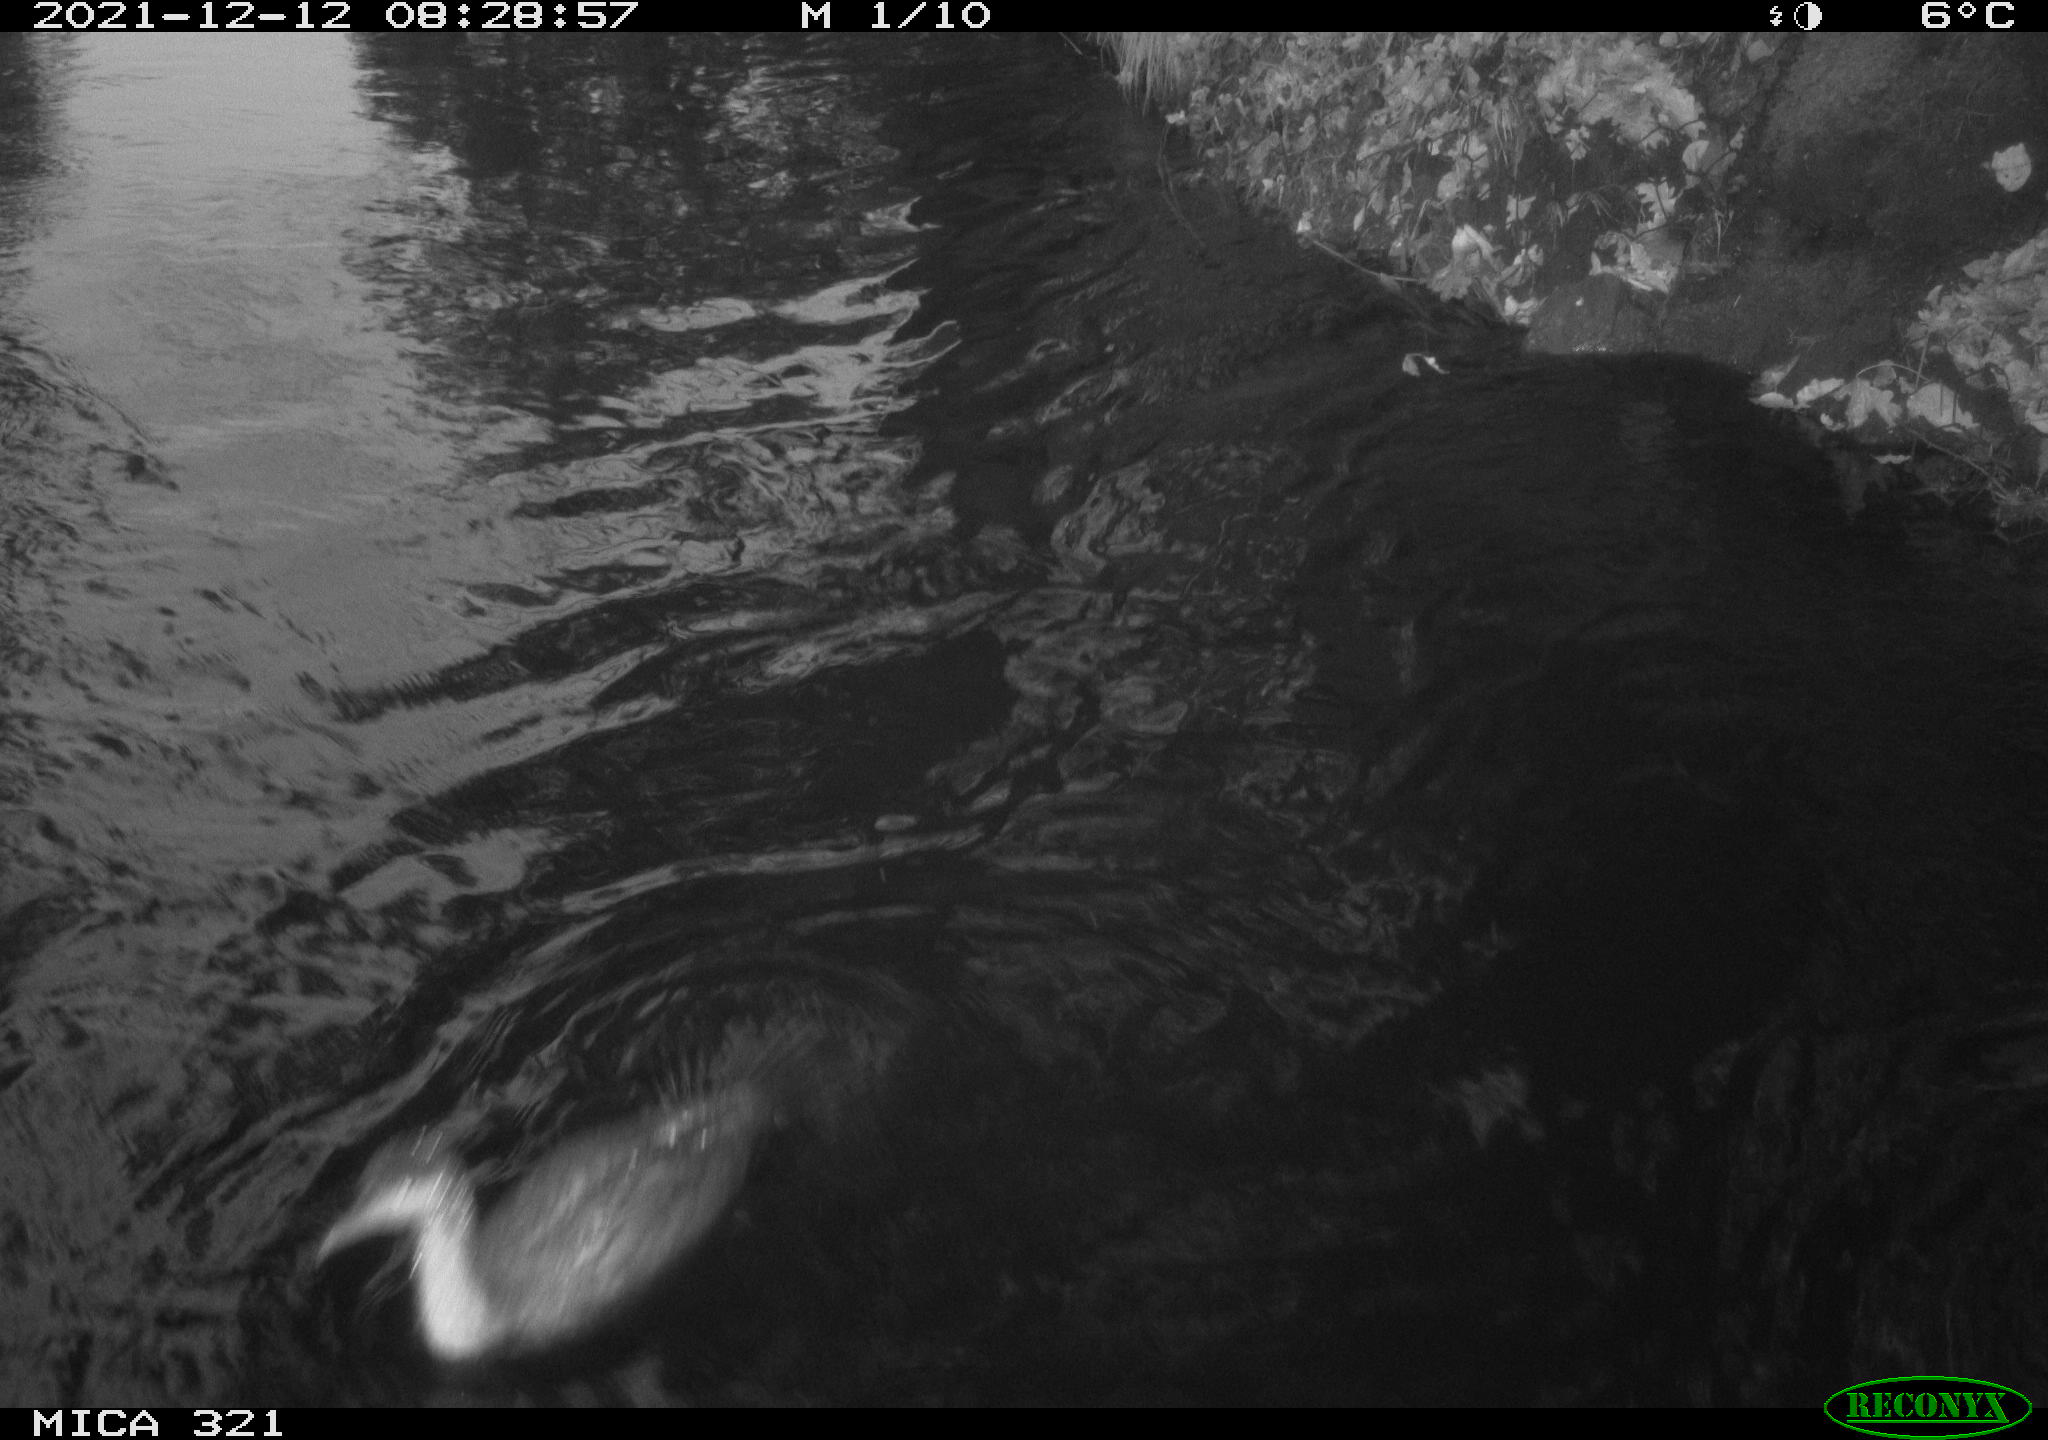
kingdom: Animalia
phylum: Chordata
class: Aves
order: Suliformes
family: Phalacrocoracidae
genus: Phalacrocorax
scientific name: Phalacrocorax carbo
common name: Great cormorant
